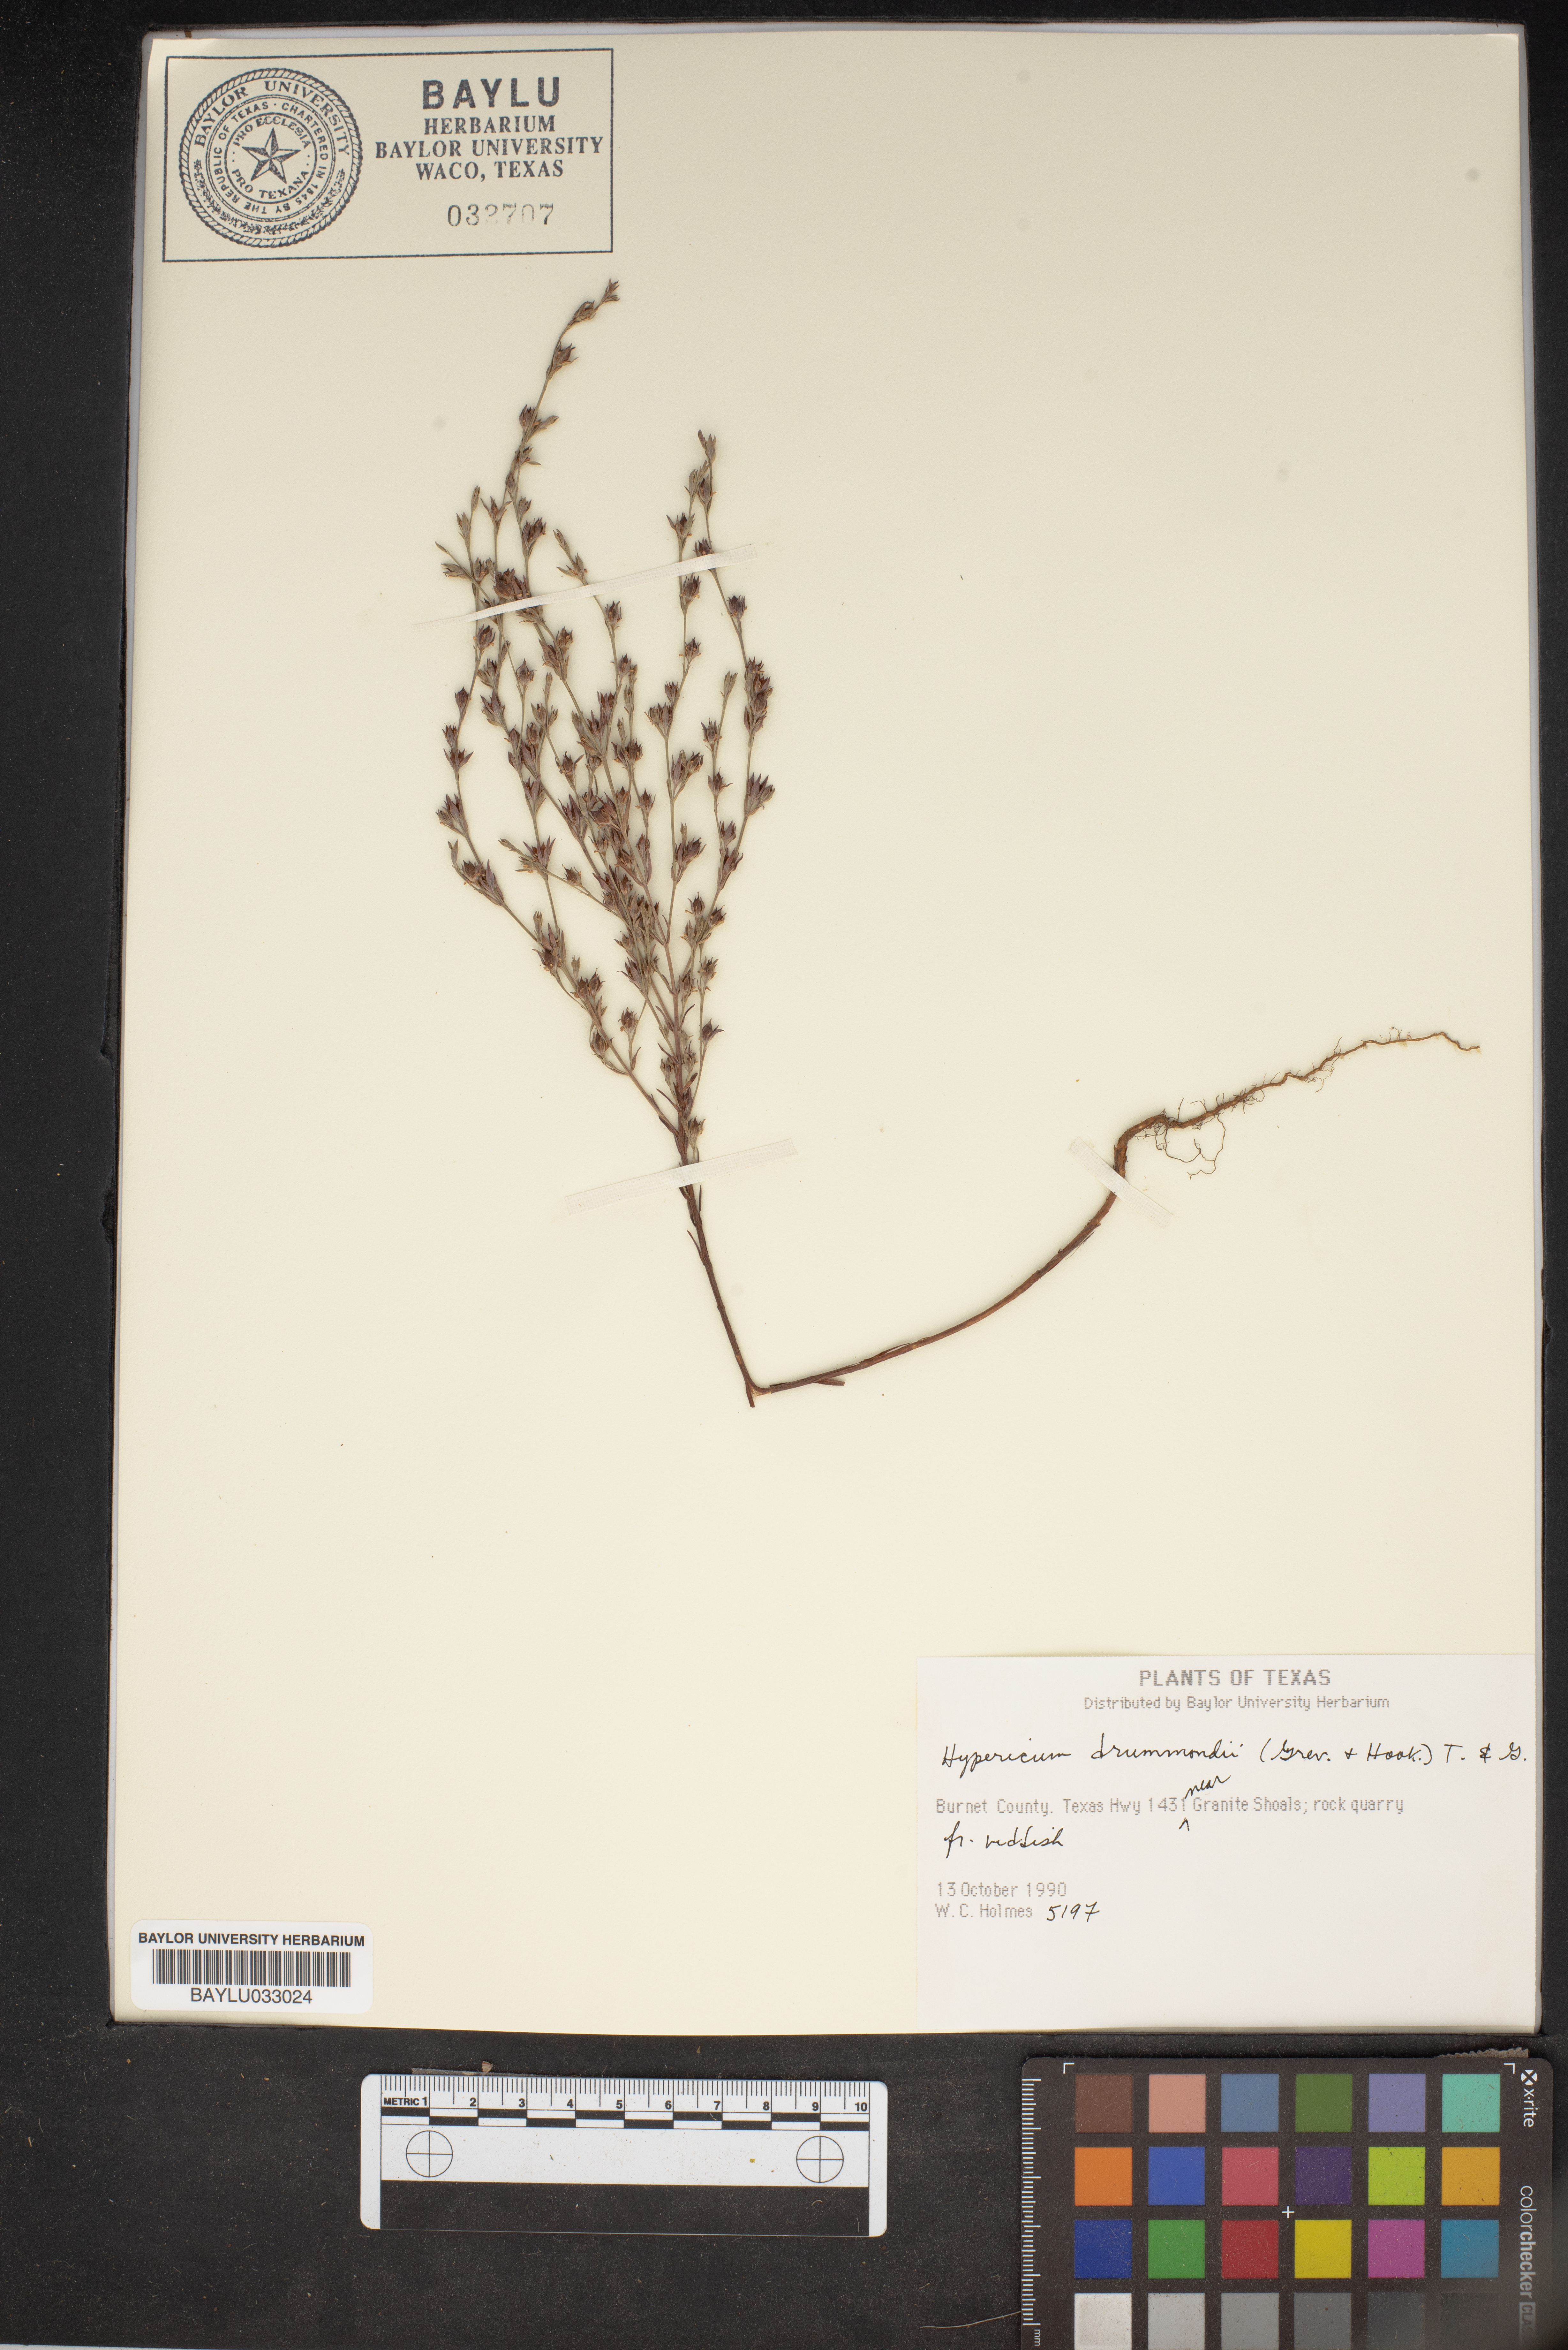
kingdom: Plantae
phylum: Tracheophyta
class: Magnoliopsida
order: Malpighiales
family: Hypericaceae
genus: Hypericum
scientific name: Hypericum drummondii
